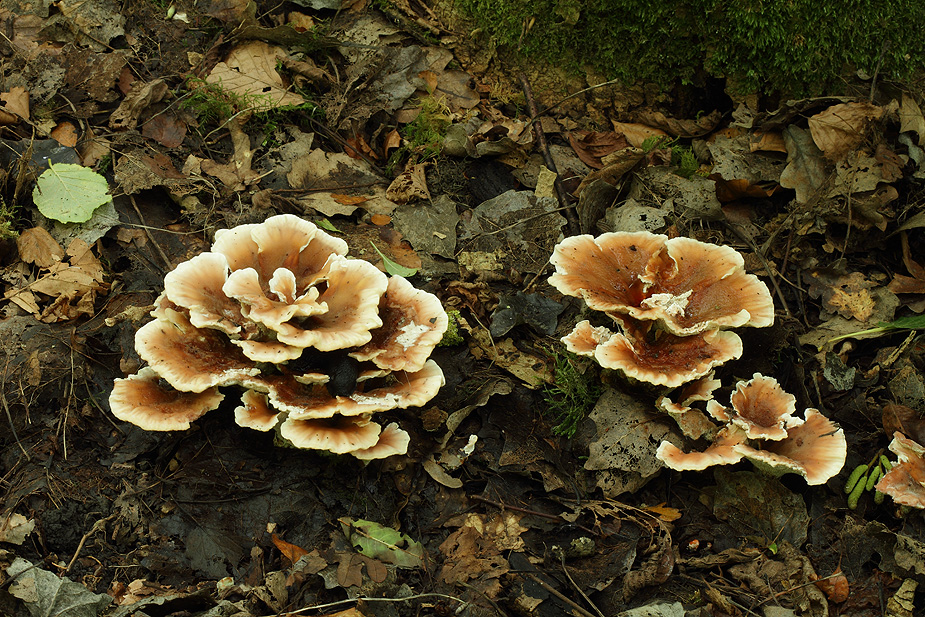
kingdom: Fungi
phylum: Basidiomycota
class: Agaricomycetes
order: Polyporales
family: Podoscyphaceae
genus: Abortiporus
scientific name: Abortiporus biennis
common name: rødmende pjalteporesvamp
